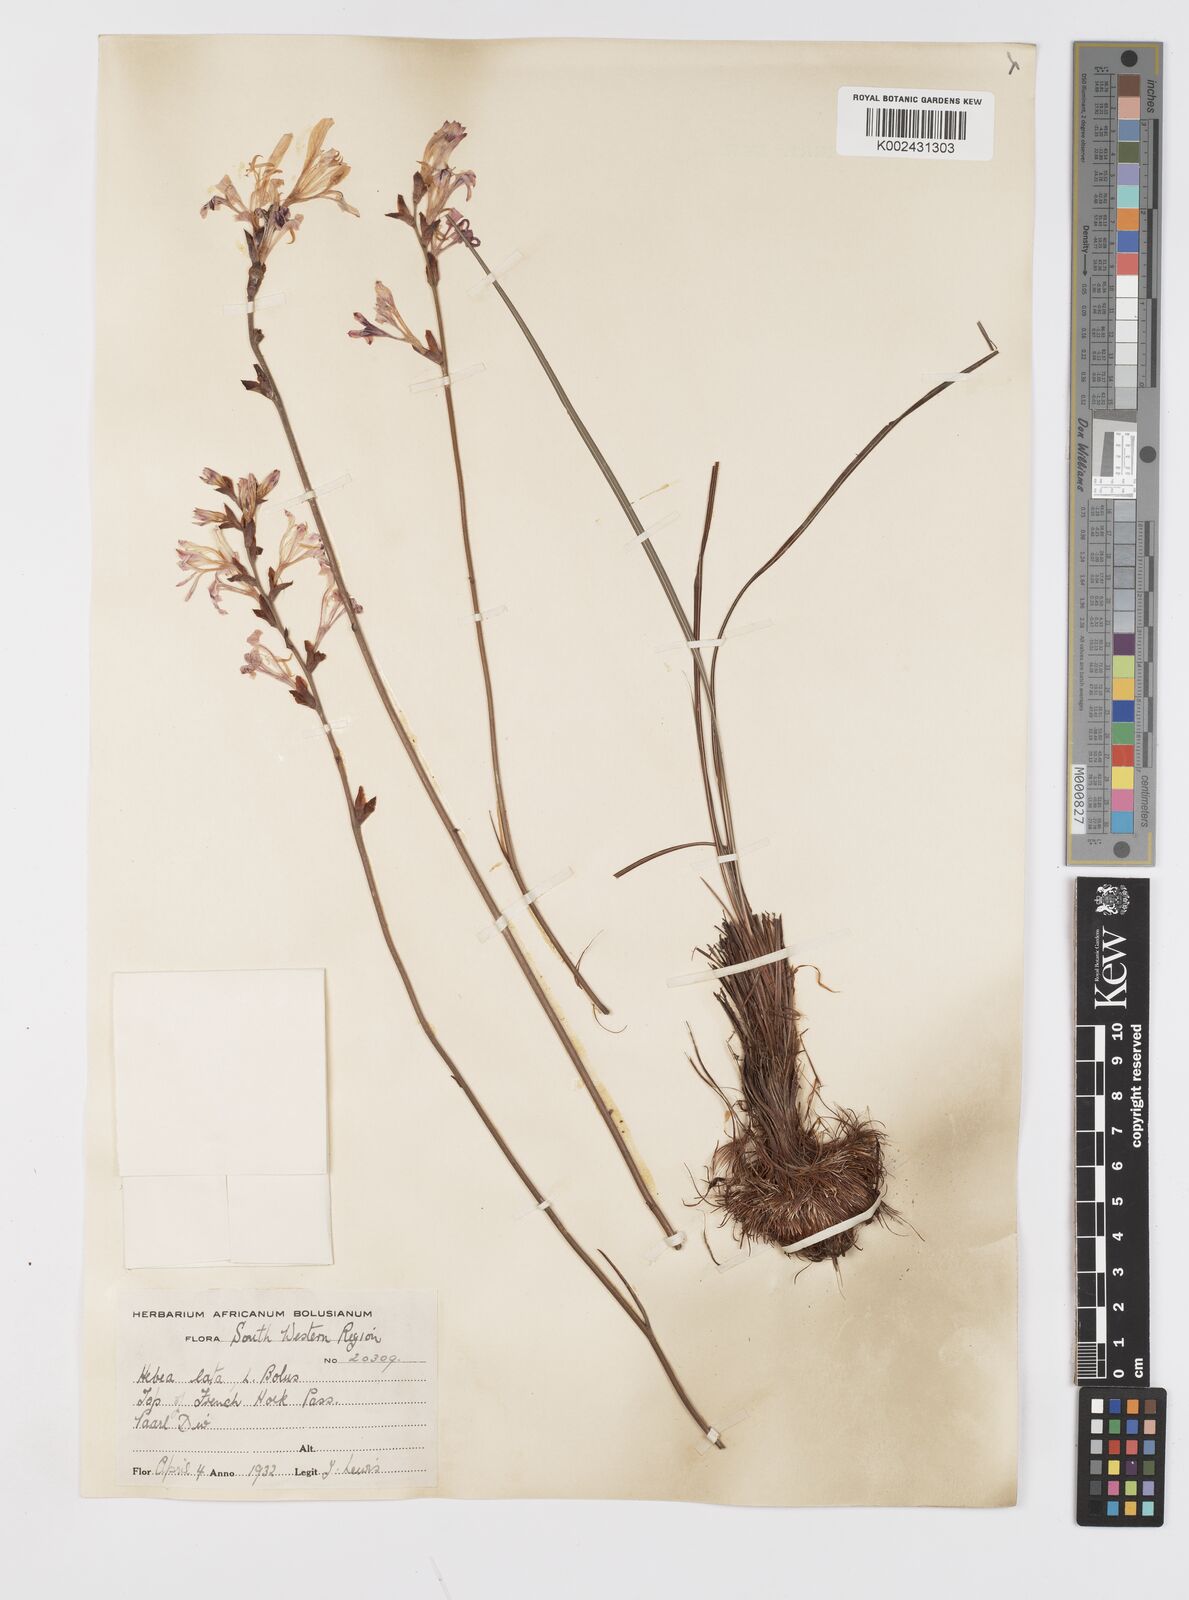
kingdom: Plantae
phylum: Tracheophyta
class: Liliopsida
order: Asparagales
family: Iridaceae
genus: Tritoniopsis
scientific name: Tritoniopsis lata
